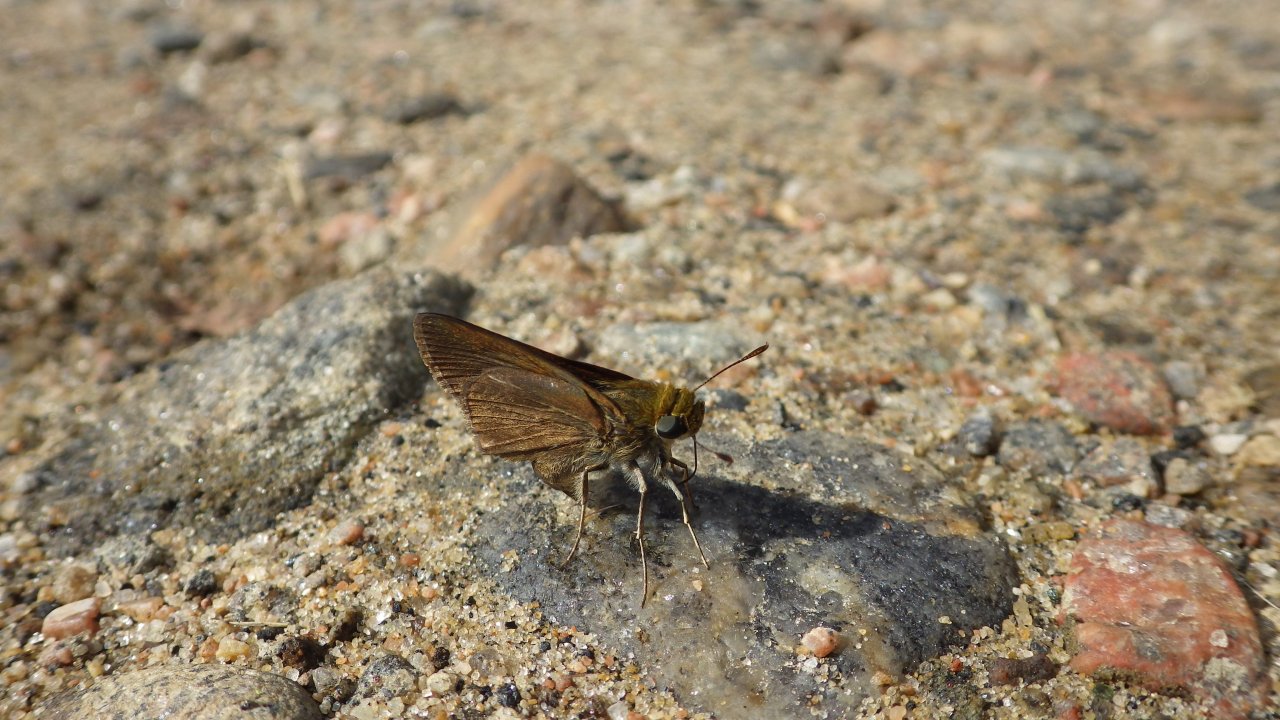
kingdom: Animalia
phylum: Arthropoda
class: Insecta
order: Lepidoptera
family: Hesperiidae
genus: Euphyes
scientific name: Euphyes vestris
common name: Dun Skipper
